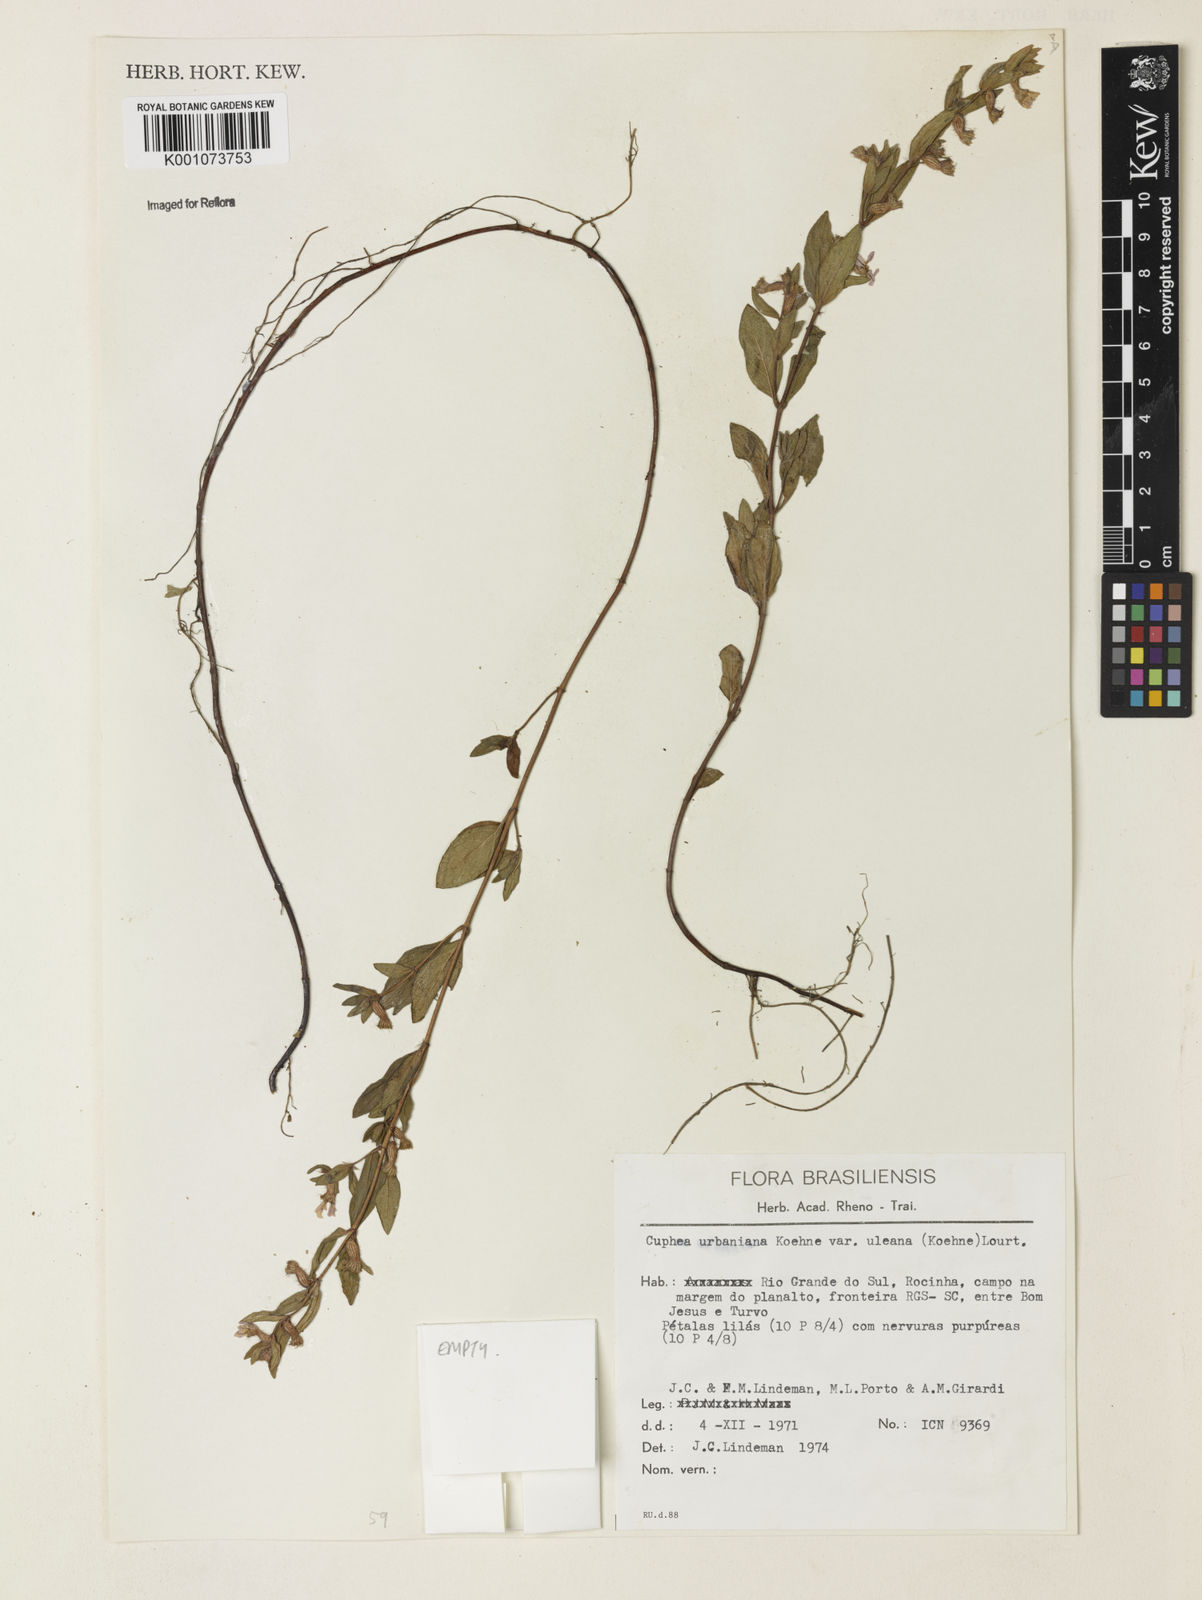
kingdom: Plantae
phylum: Tracheophyta
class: Magnoliopsida
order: Myrtales
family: Lythraceae
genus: Cuphea
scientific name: Cuphea urbaniana
